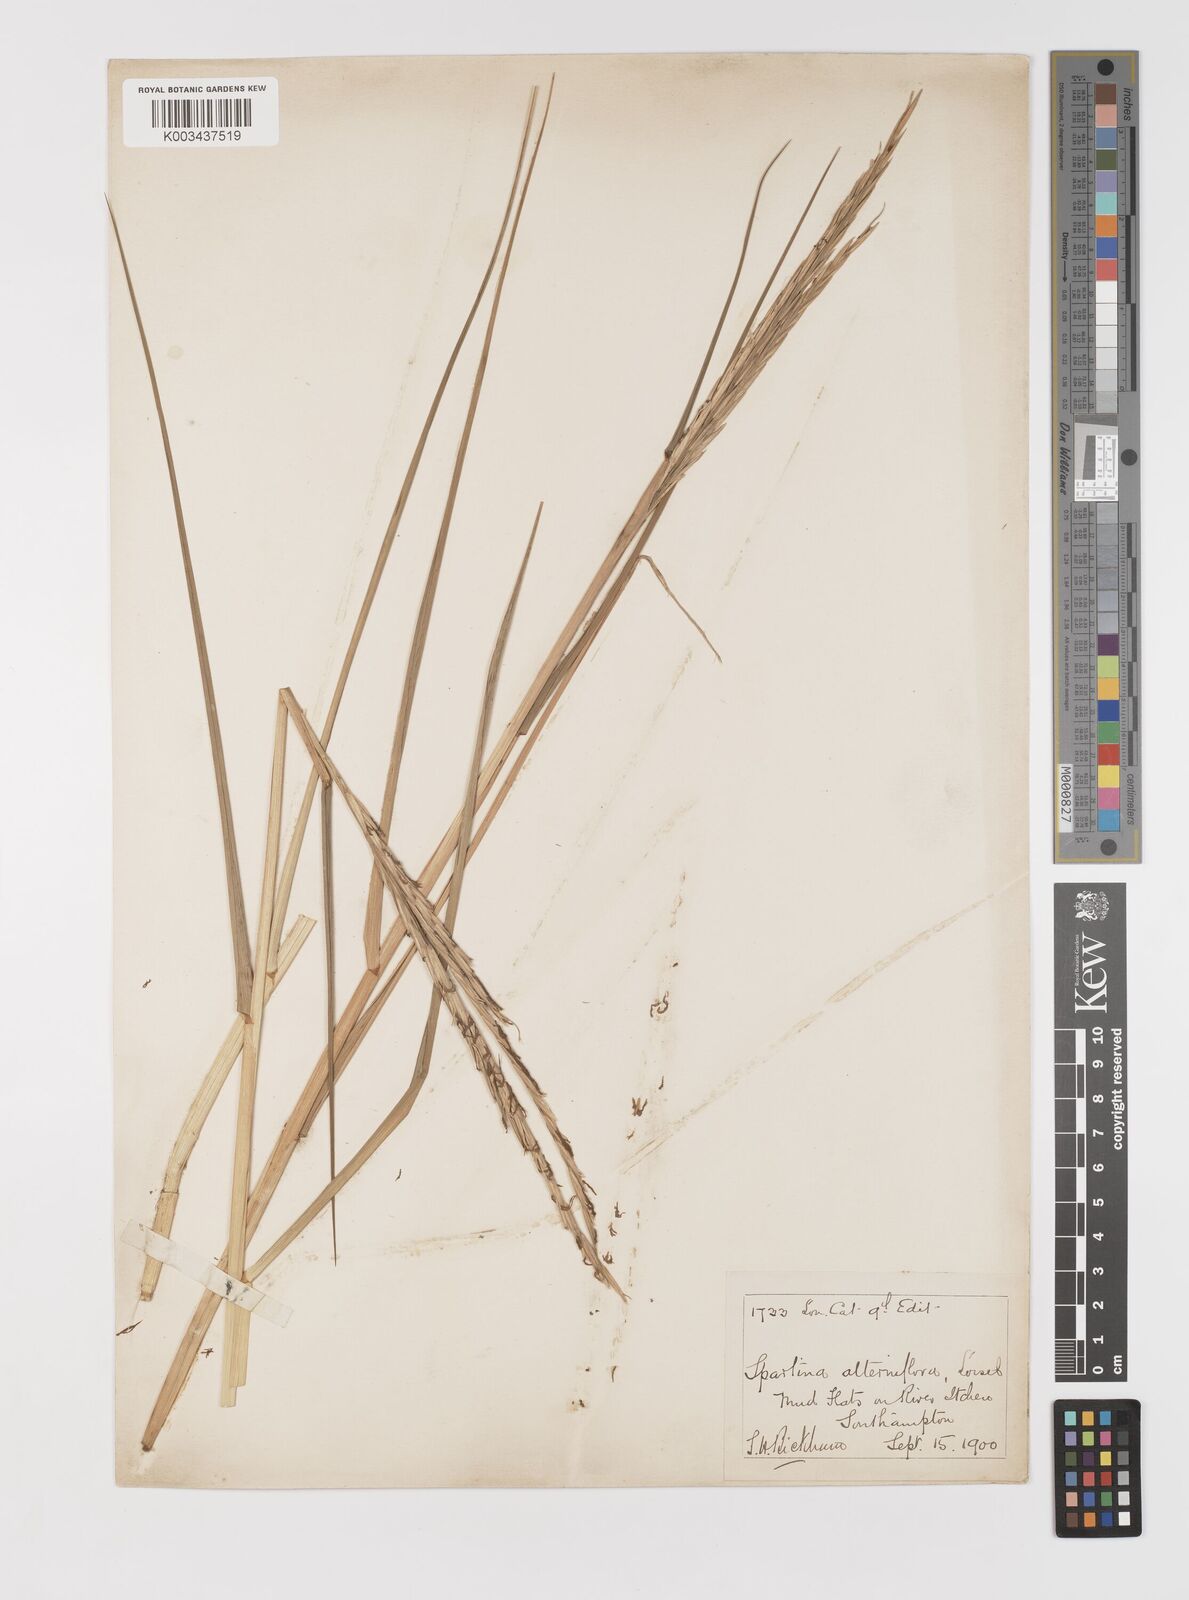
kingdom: Plantae
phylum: Tracheophyta
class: Liliopsida
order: Poales
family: Poaceae
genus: Sporobolus
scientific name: Sporobolus anglicus
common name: English cordgrass
